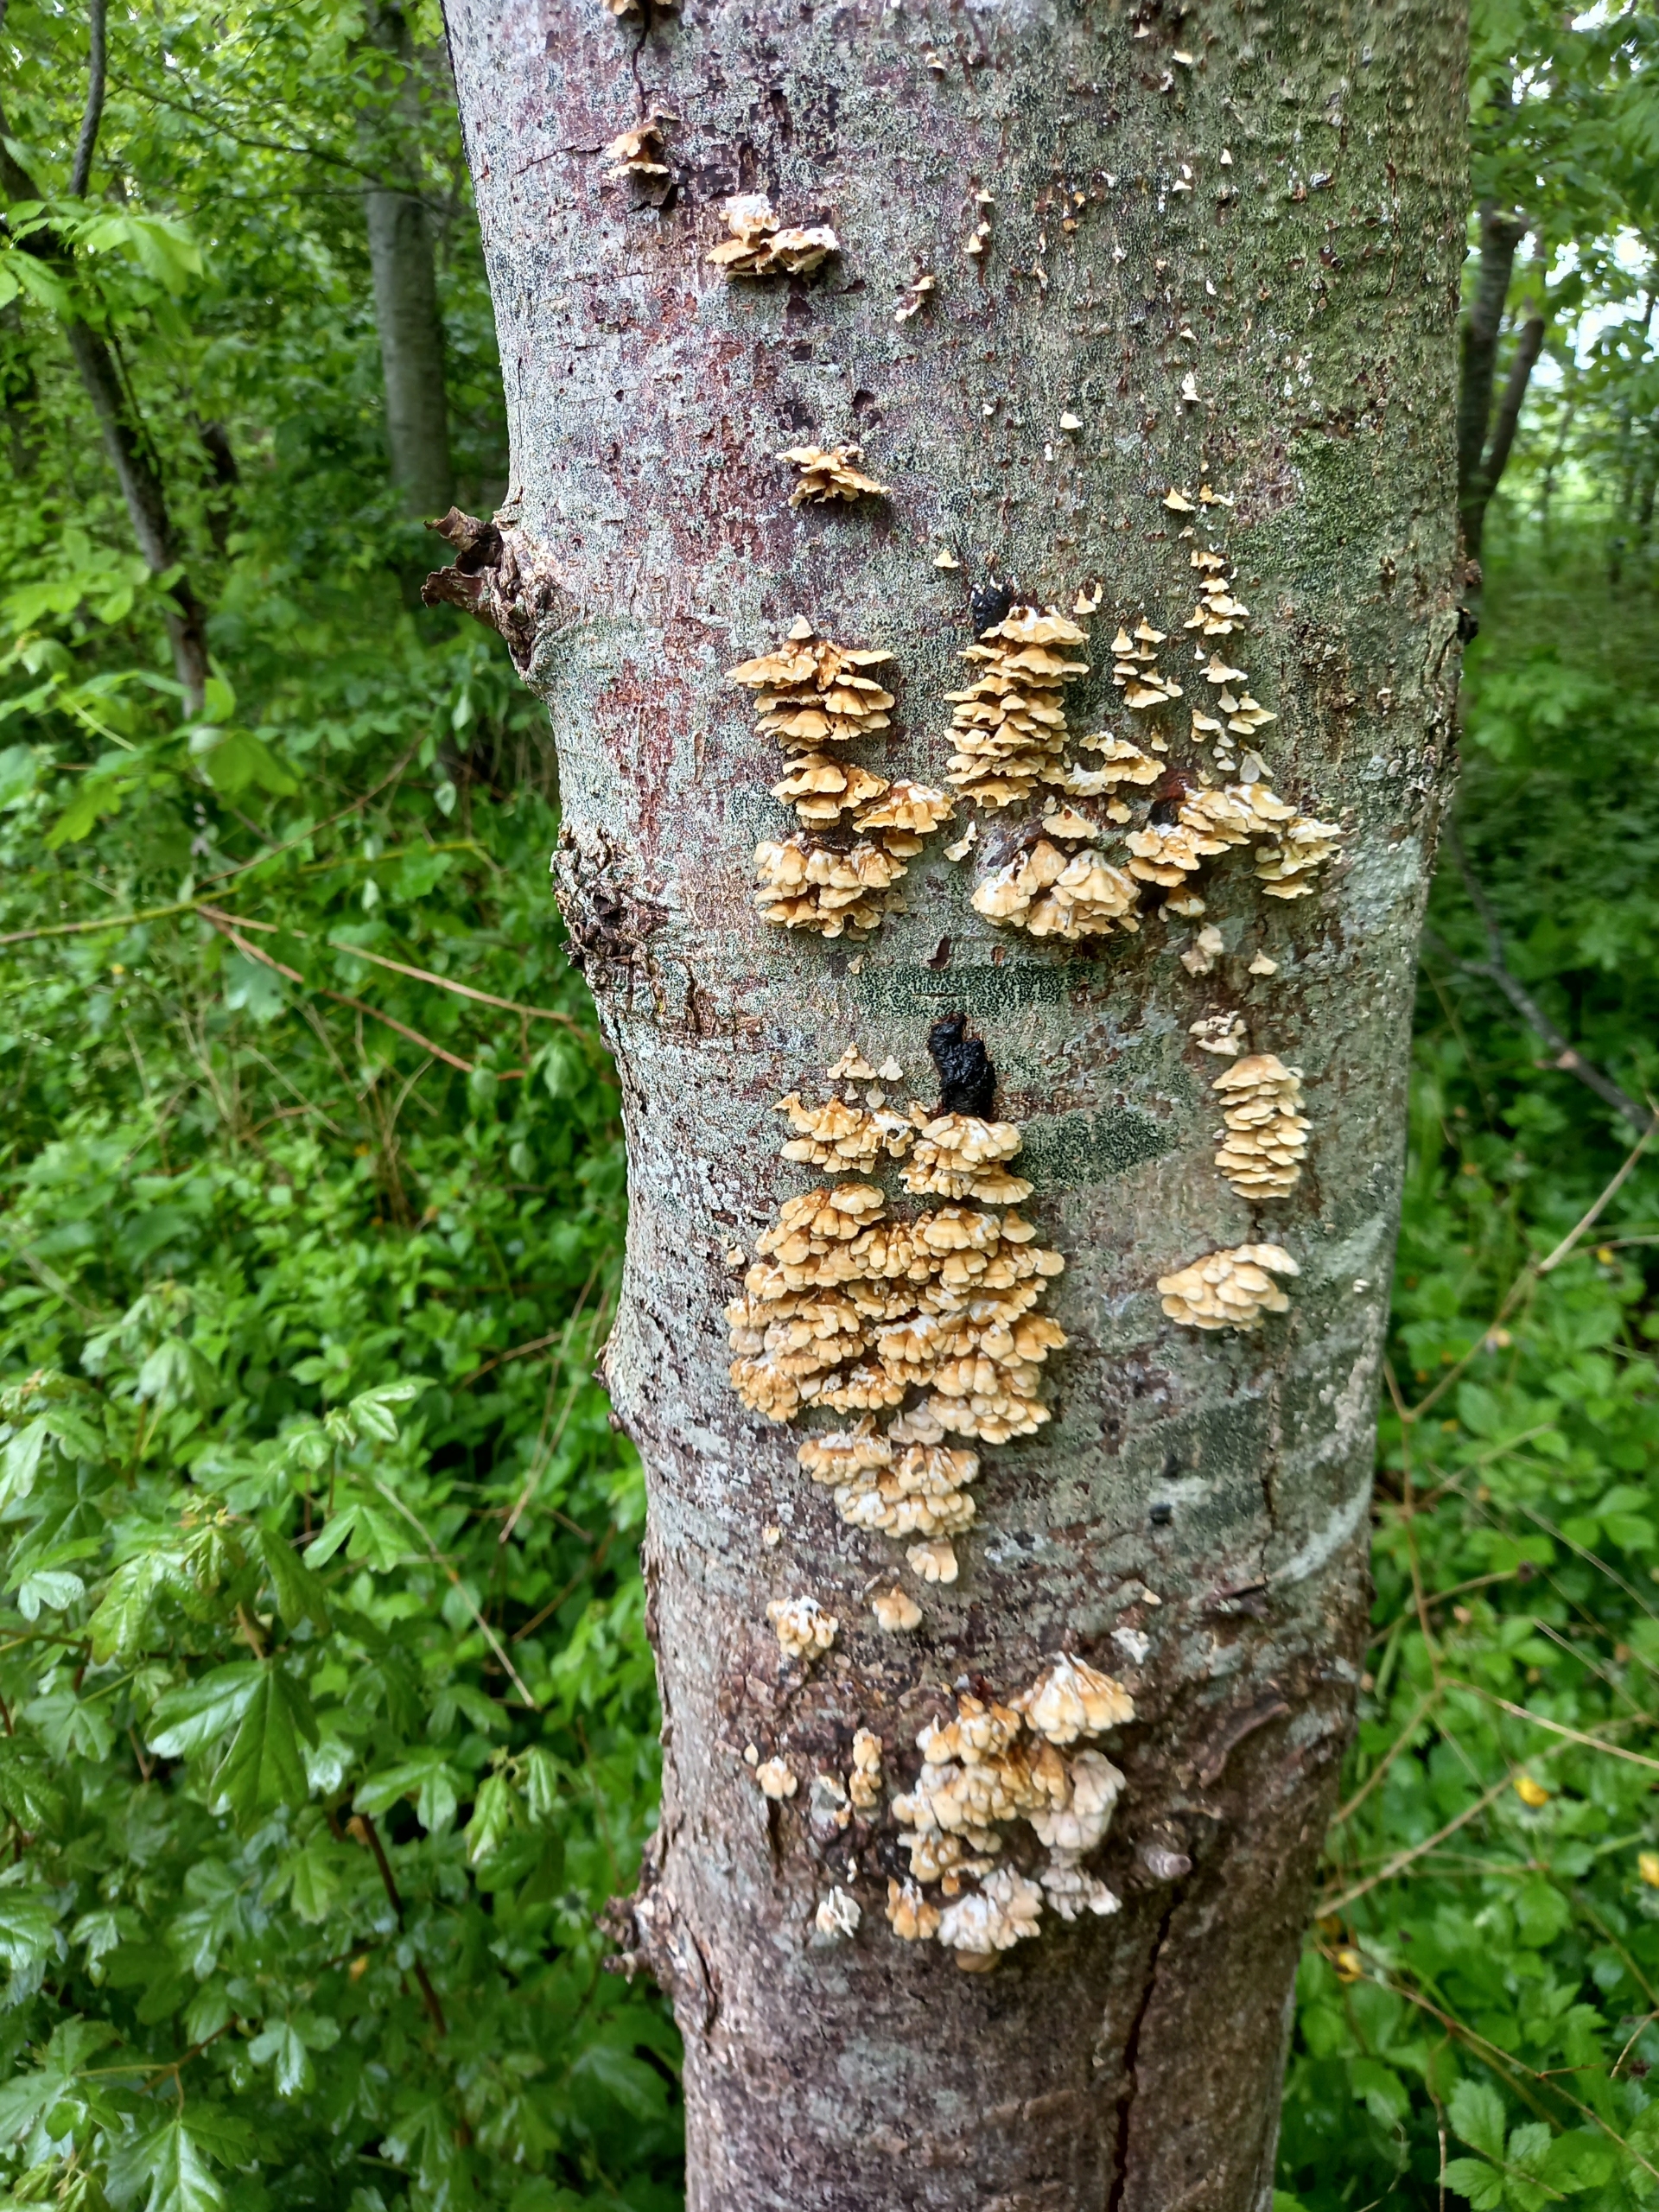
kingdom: Fungi
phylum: Basidiomycota
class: Agaricomycetes
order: Amylocorticiales
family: Amylocorticiaceae
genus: Plicaturopsis
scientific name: Plicaturopsis crispa
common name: Krusblad
